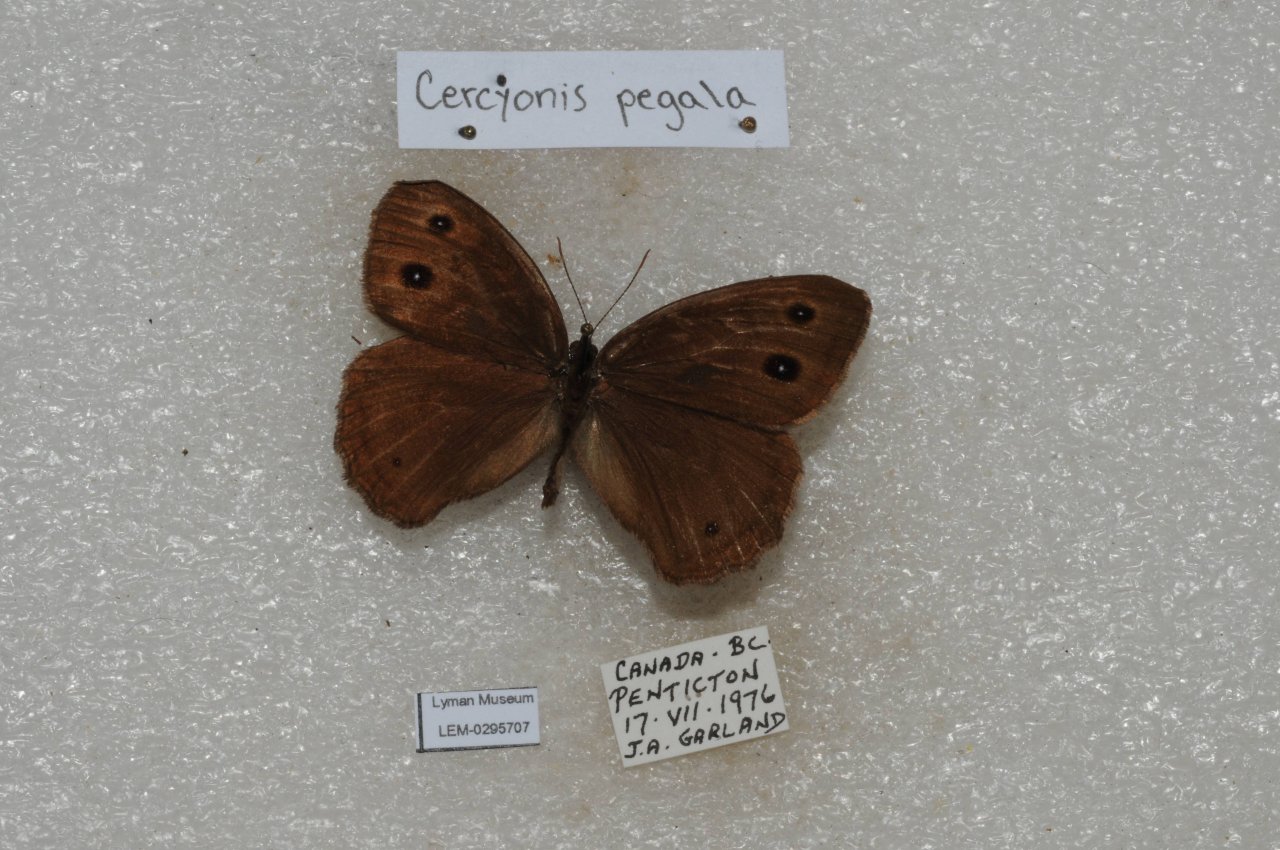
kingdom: Animalia
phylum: Arthropoda
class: Insecta
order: Lepidoptera
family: Nymphalidae
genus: Cercyonis
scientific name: Cercyonis pegala
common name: Common Wood-Nymph
